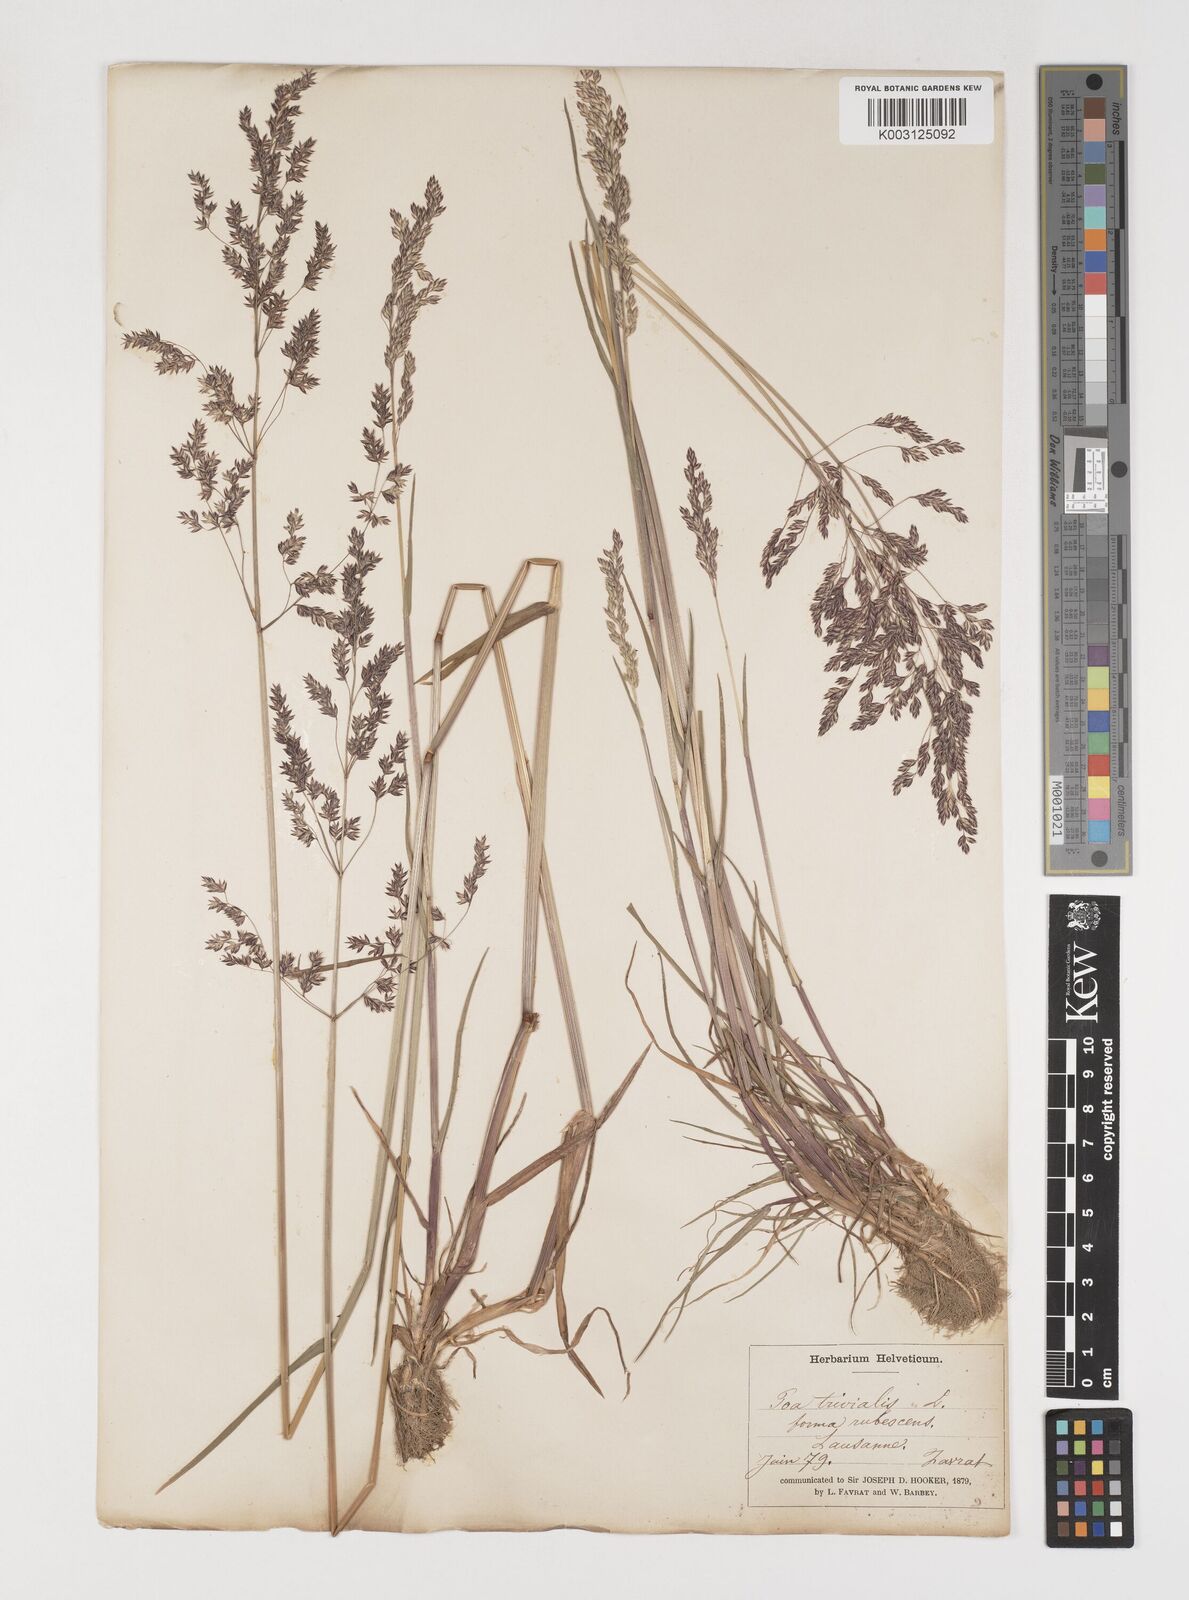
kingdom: Plantae
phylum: Tracheophyta
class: Liliopsida
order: Poales
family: Poaceae
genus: Poa
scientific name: Poa trivialis
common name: Rough bluegrass
